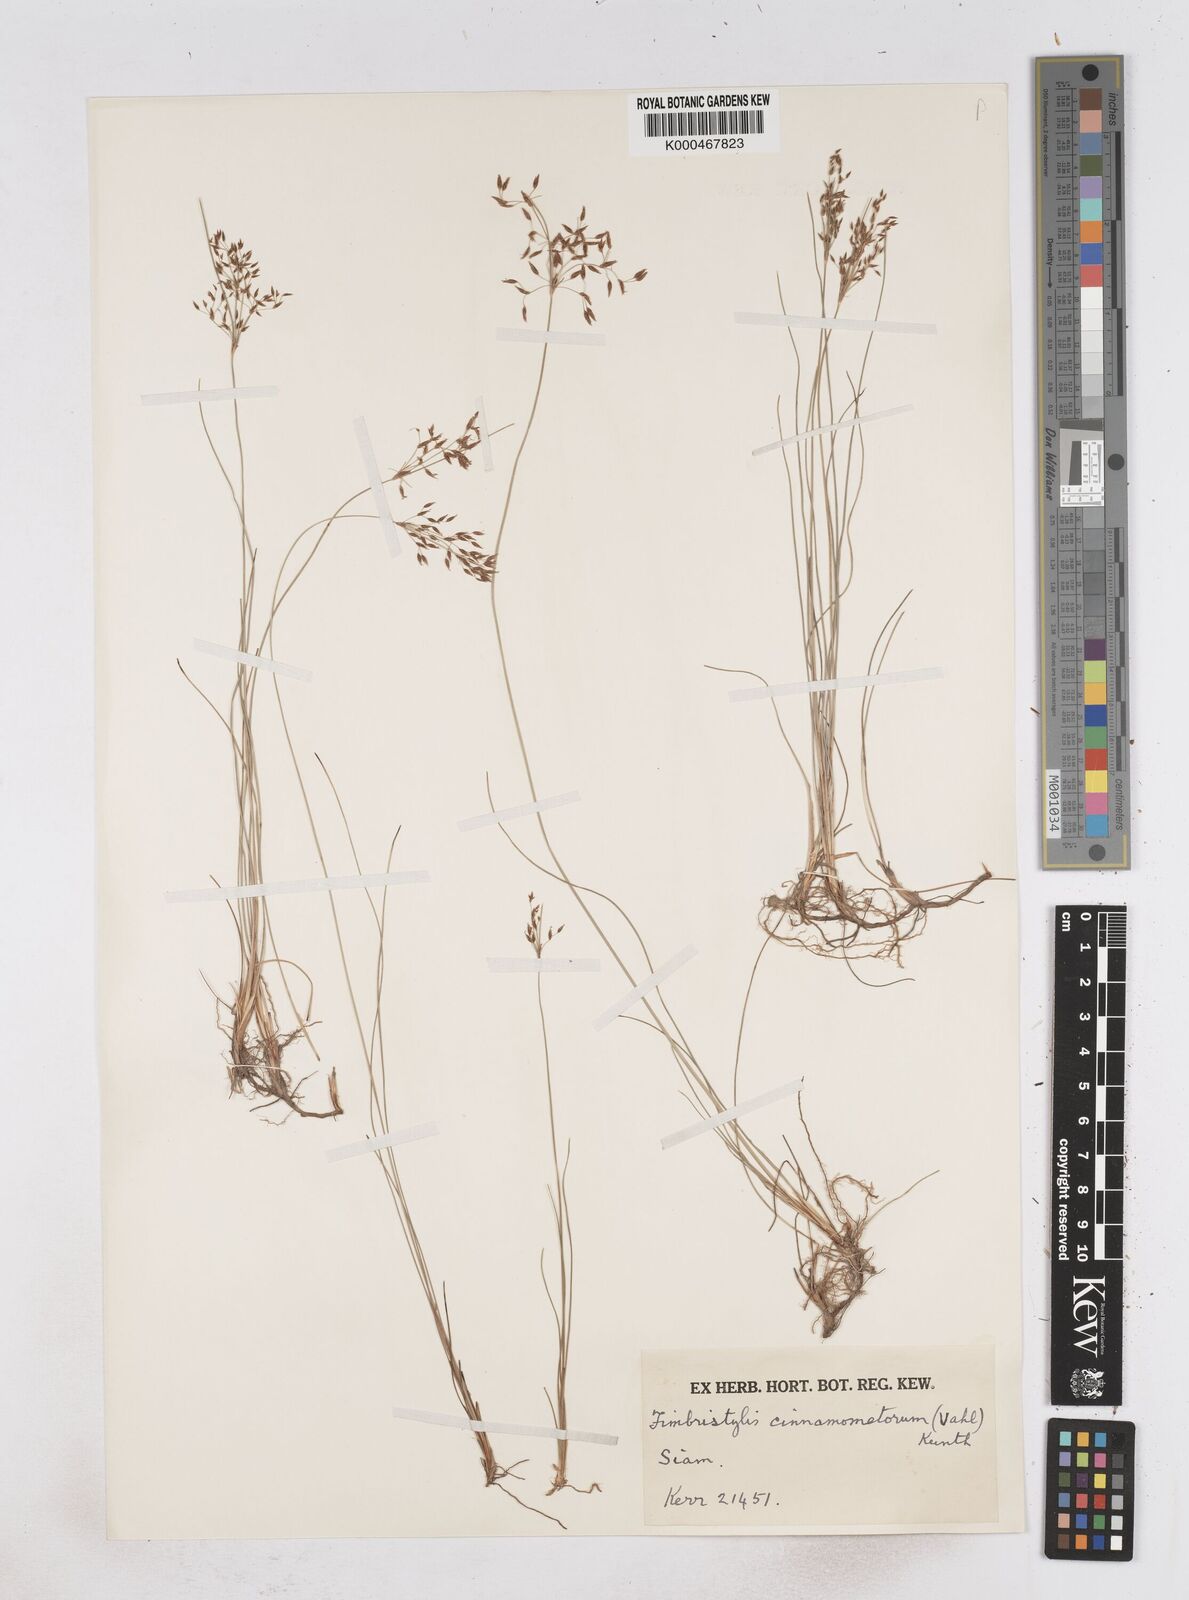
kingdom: Plantae
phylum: Tracheophyta
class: Liliopsida
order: Poales
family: Cyperaceae
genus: Fimbristylis
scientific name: Fimbristylis cinnamometorum
